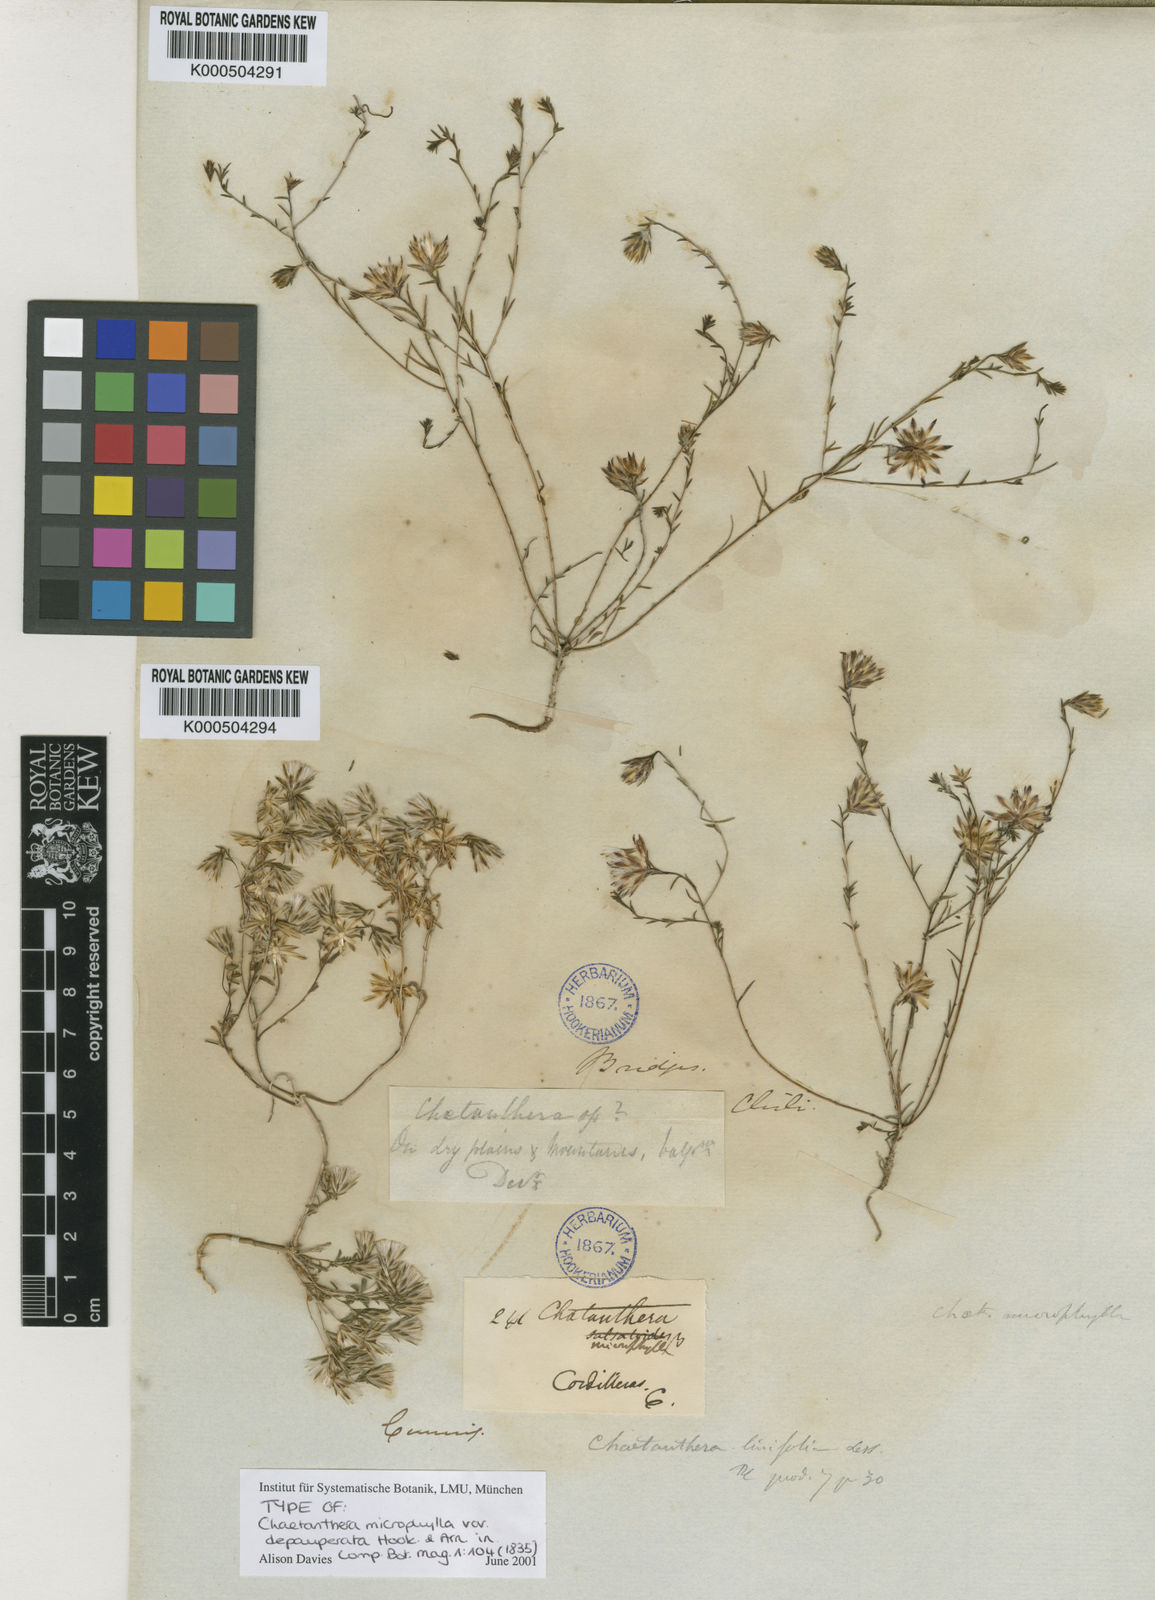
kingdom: Plantae
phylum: Tracheophyta
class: Magnoliopsida
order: Asterales
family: Asteraceae
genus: Chaetanthera
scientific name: Chaetanthera microphylla
